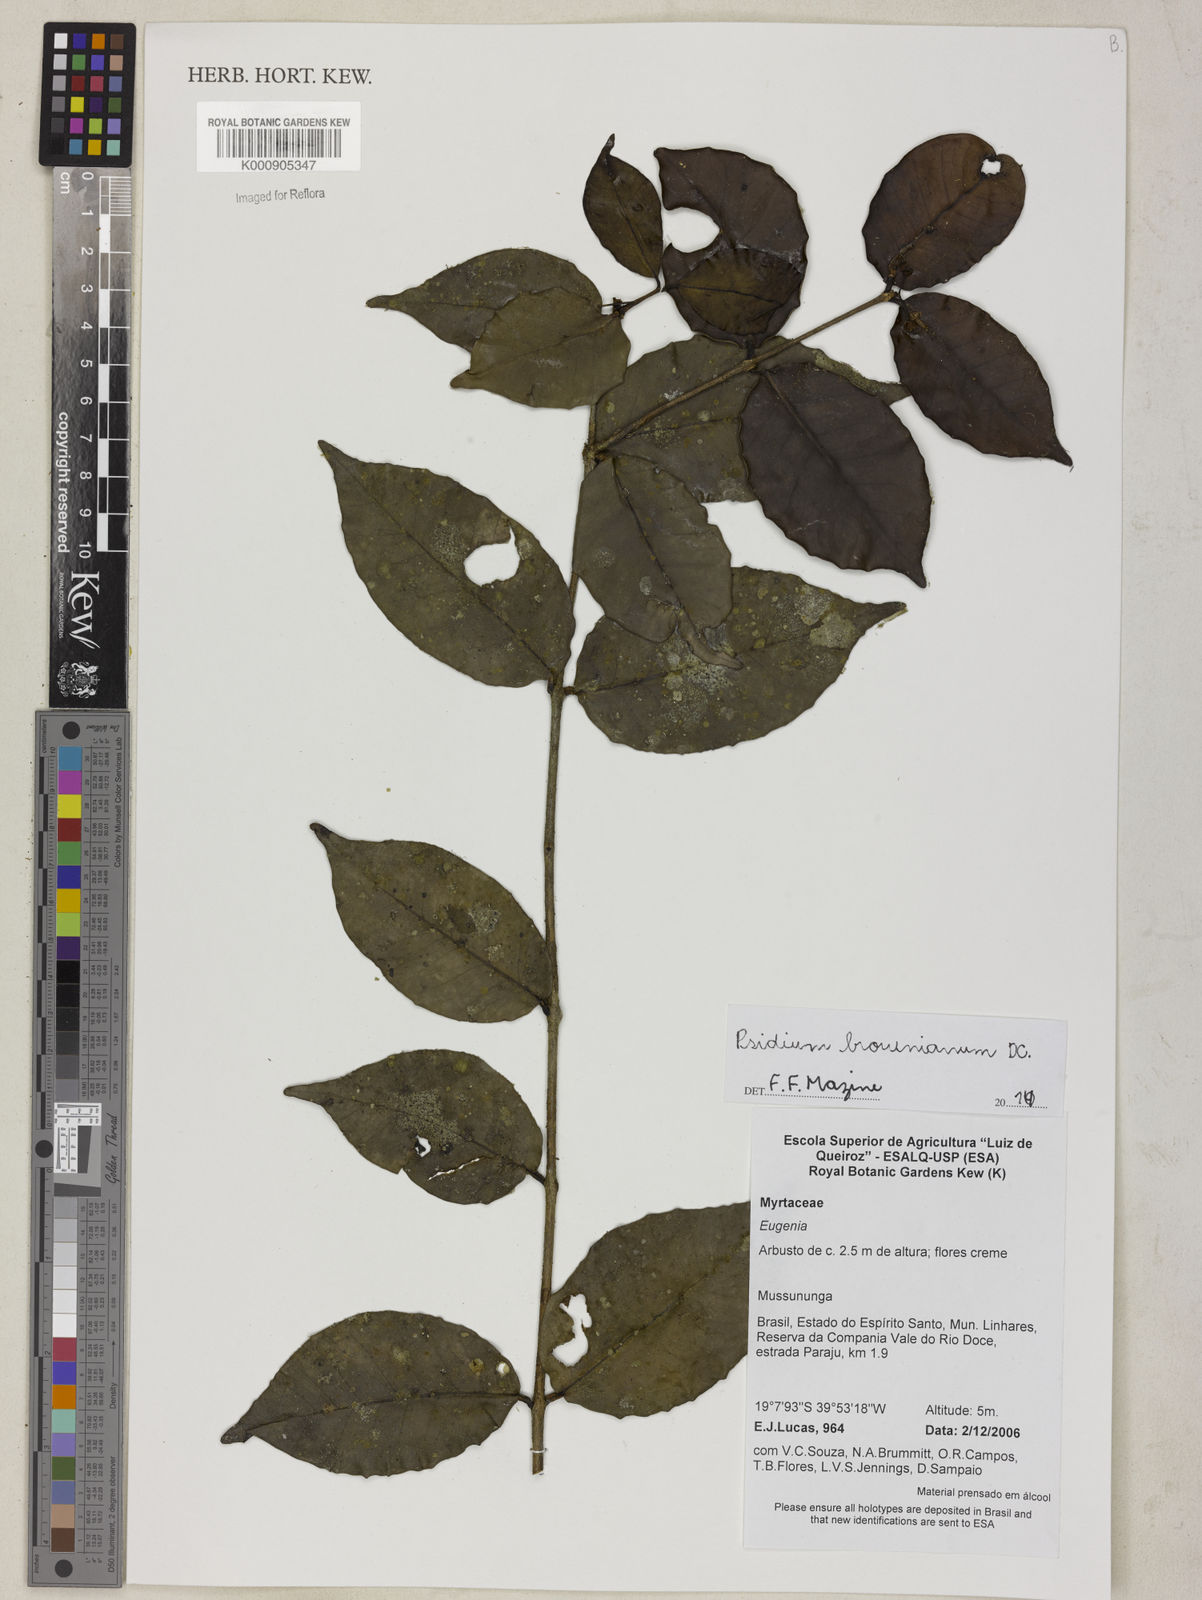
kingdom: Plantae
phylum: Tracheophyta
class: Magnoliopsida
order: Myrtales
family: Myrtaceae
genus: Psidium
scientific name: Psidium brownianum
